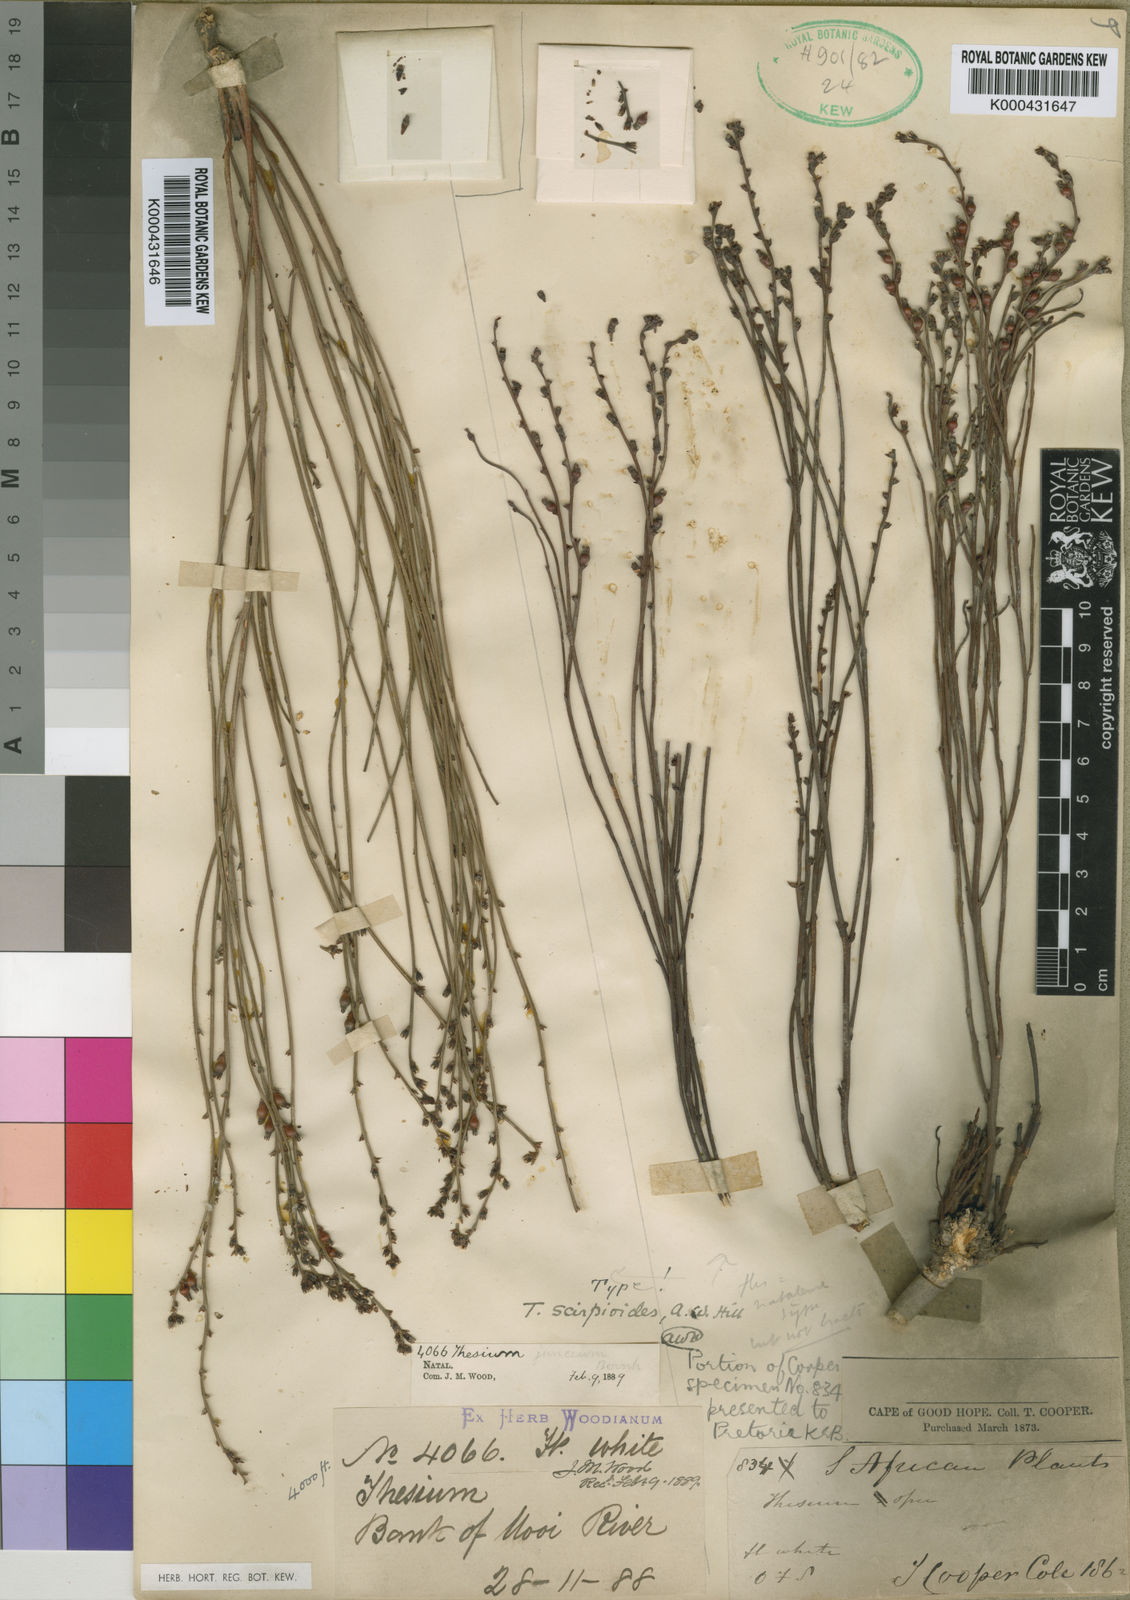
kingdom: Plantae
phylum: Tracheophyta
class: Magnoliopsida
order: Santalales
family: Thesiaceae
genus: Thesium
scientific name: Thesium scirpoides
